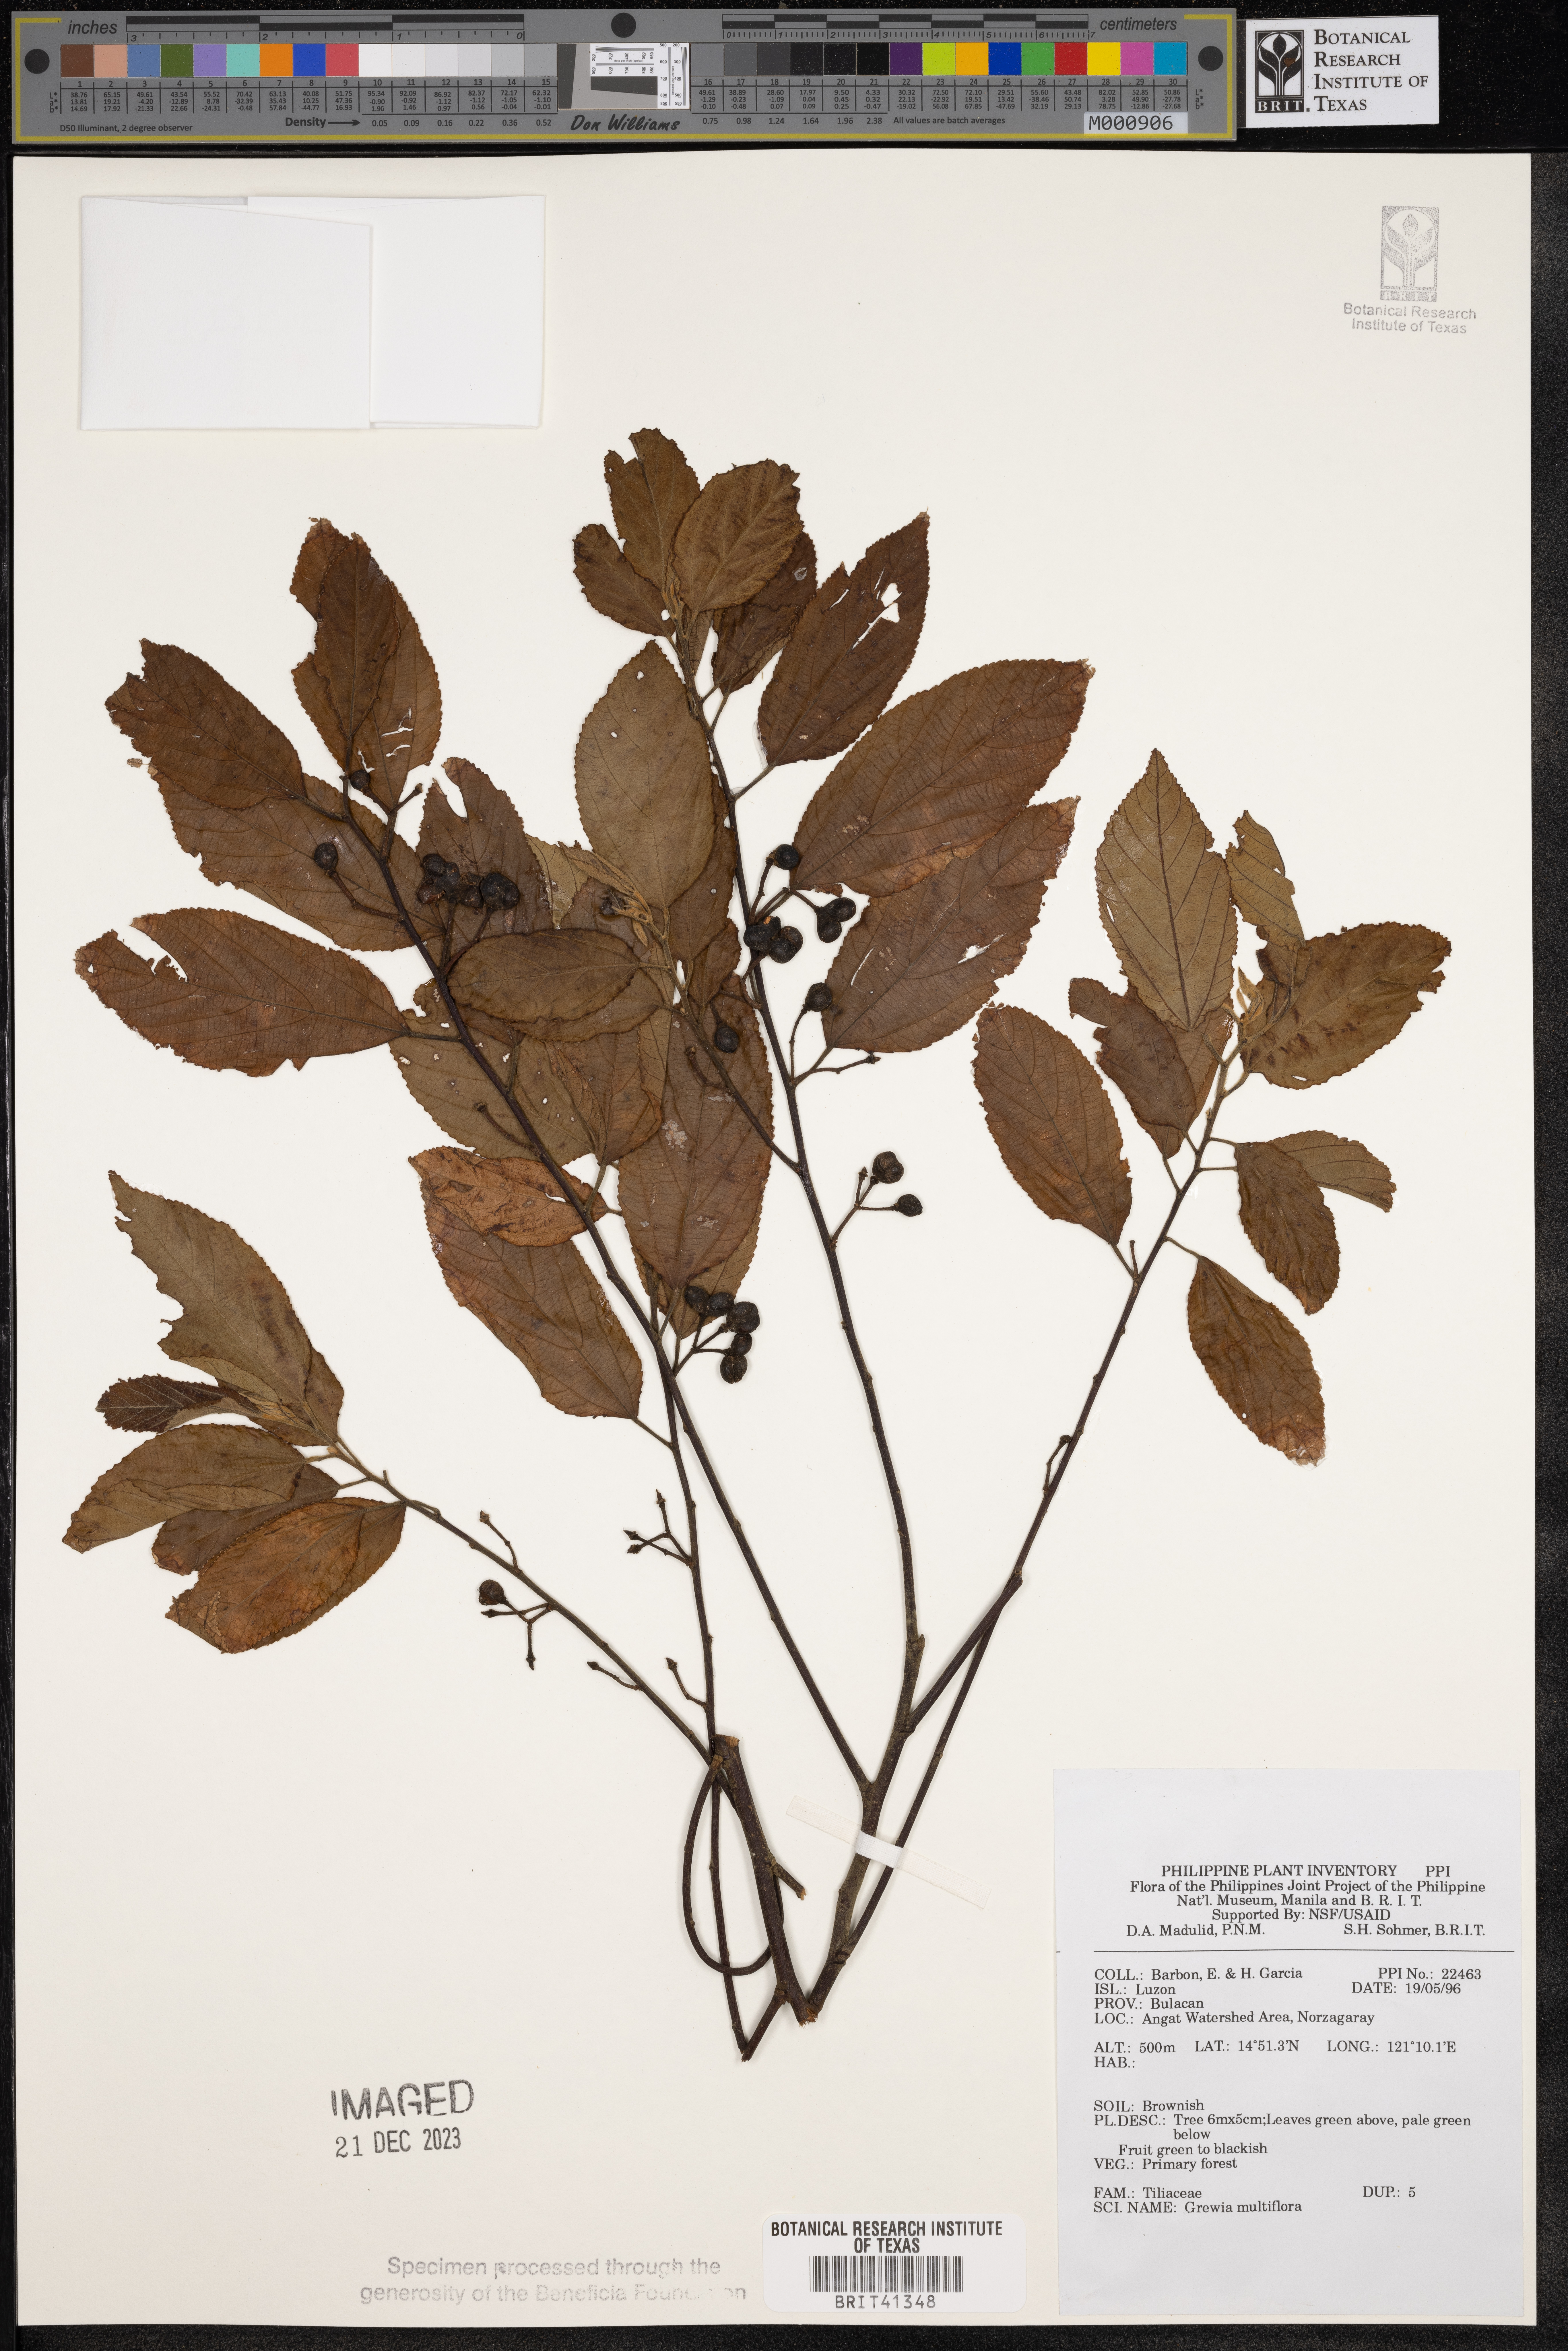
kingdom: Plantae
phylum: Tracheophyta
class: Magnoliopsida
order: Malvales
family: Malvaceae
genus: Grewia
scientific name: Grewia multiflora
